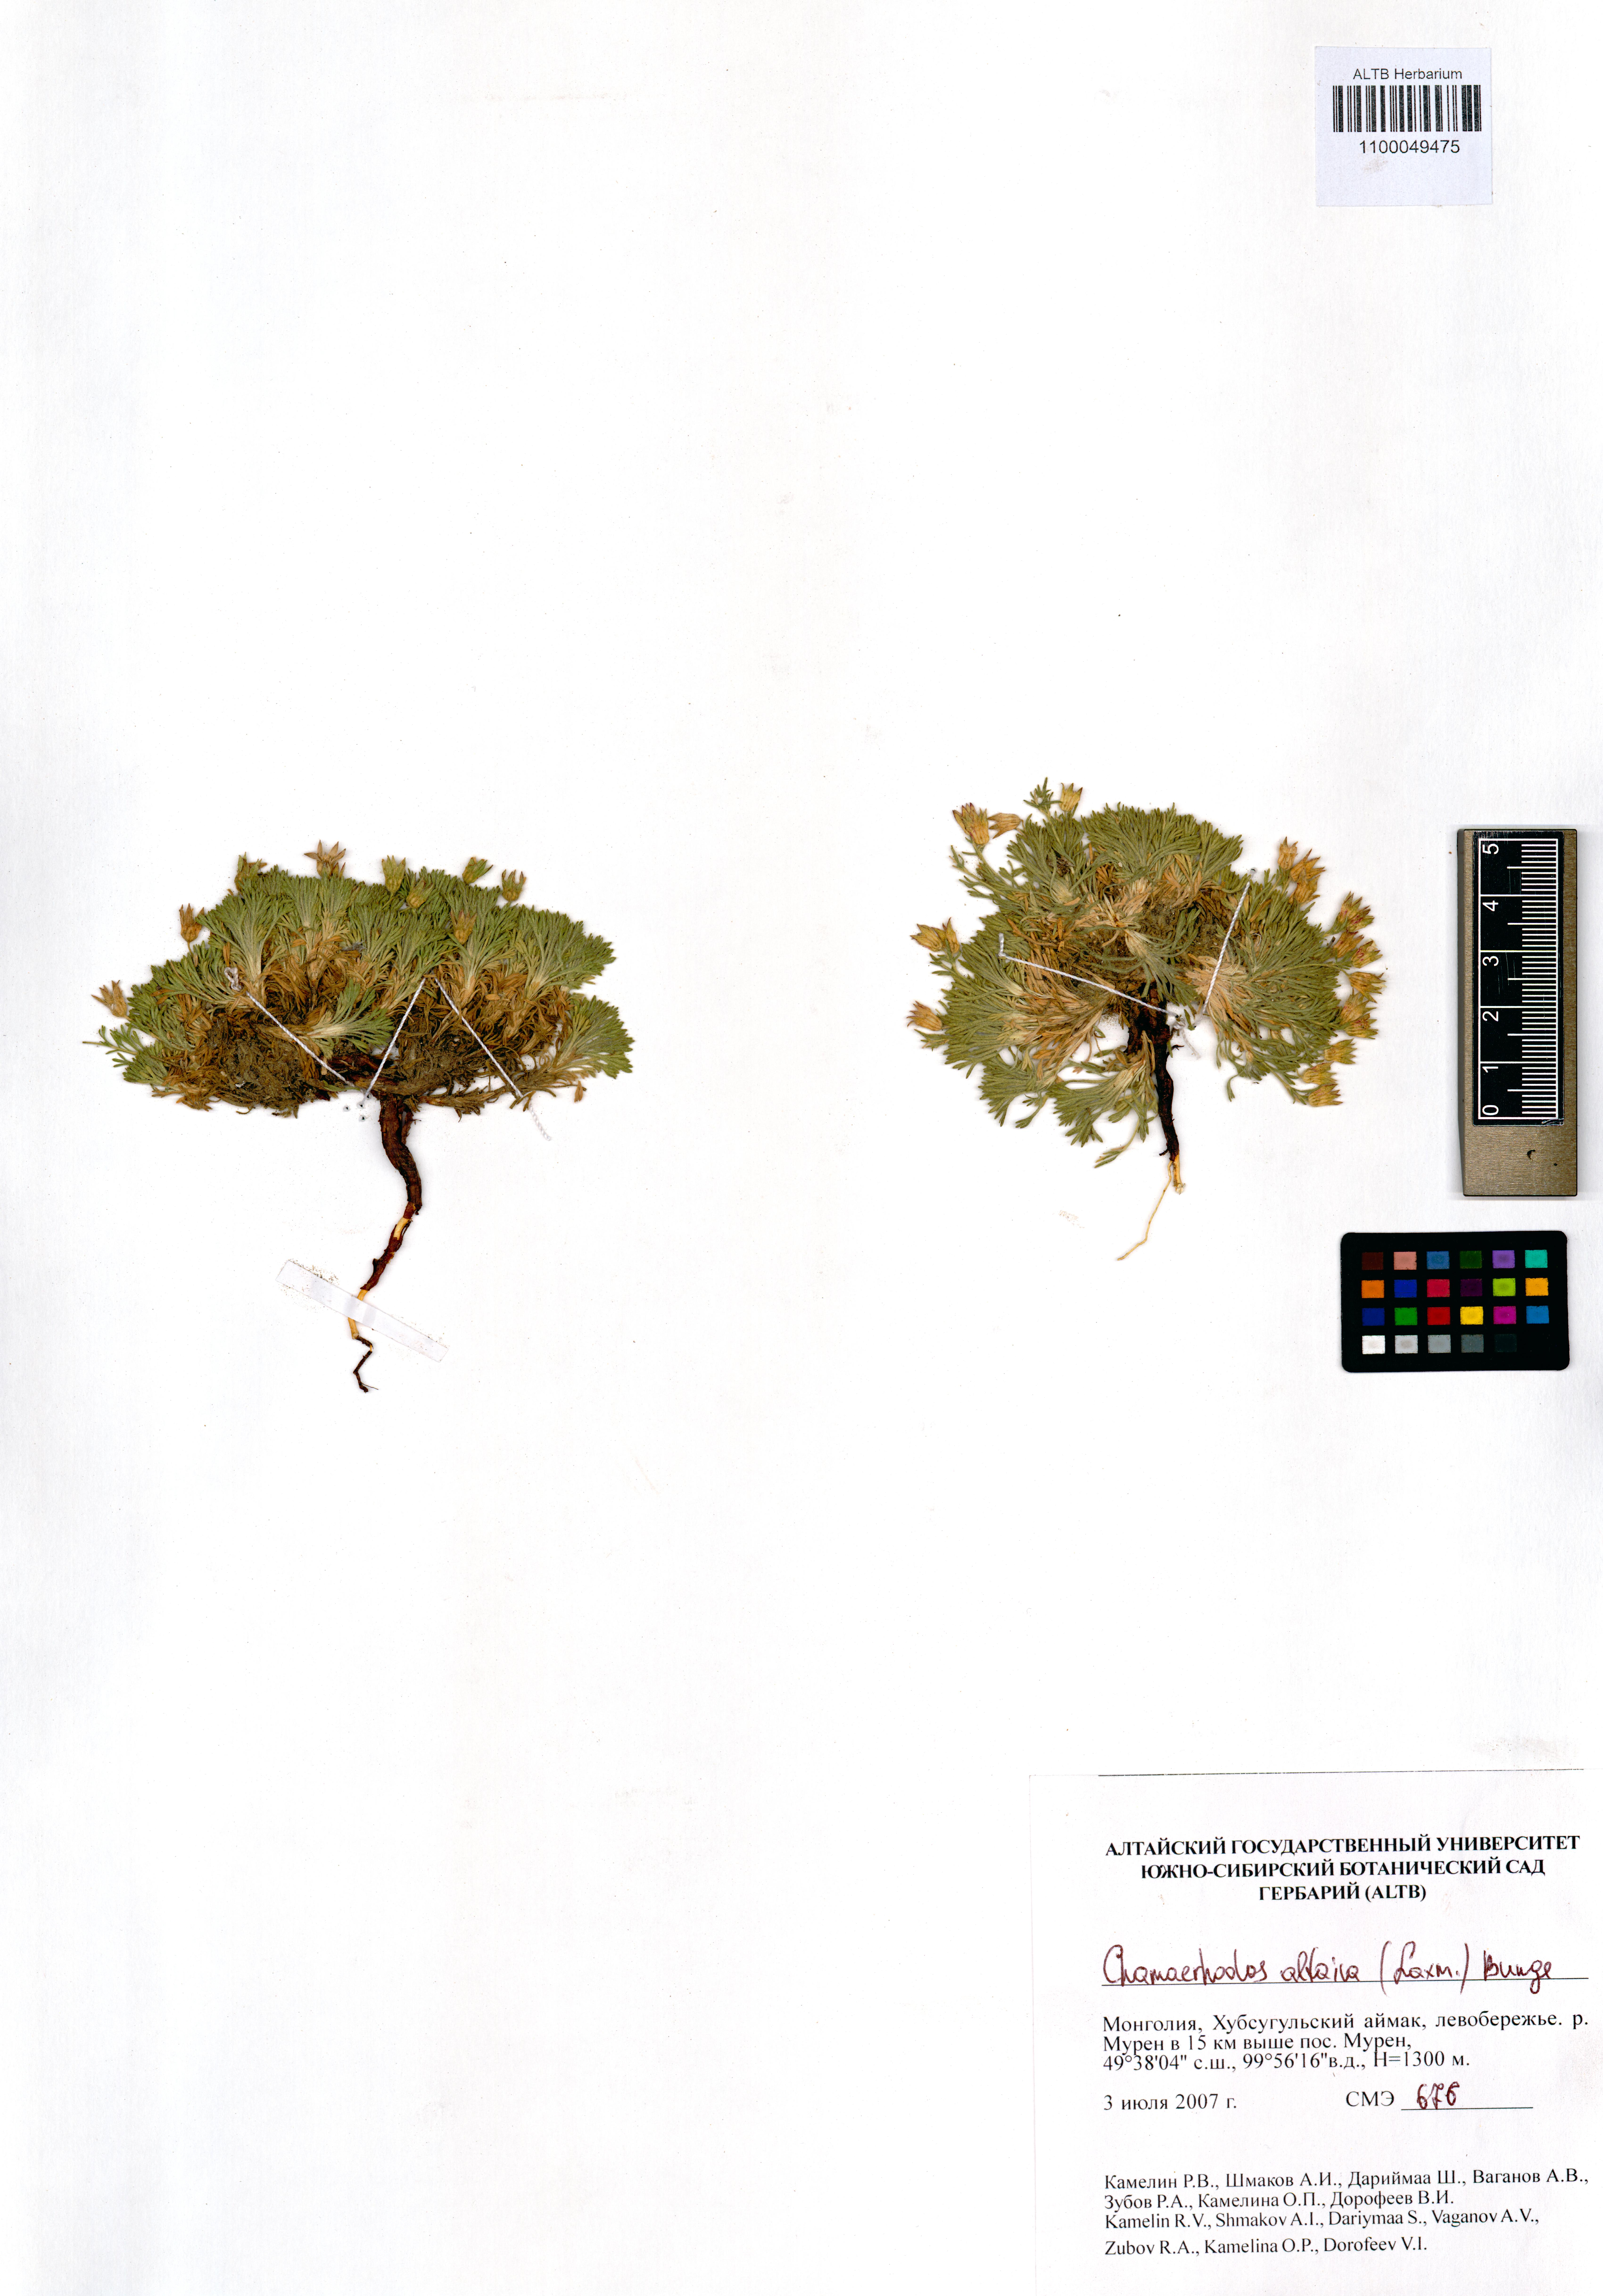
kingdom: Plantae
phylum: Tracheophyta
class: Magnoliopsida
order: Rosales
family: Rosaceae
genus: Chamaerhodos
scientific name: Chamaerhodos altaica
